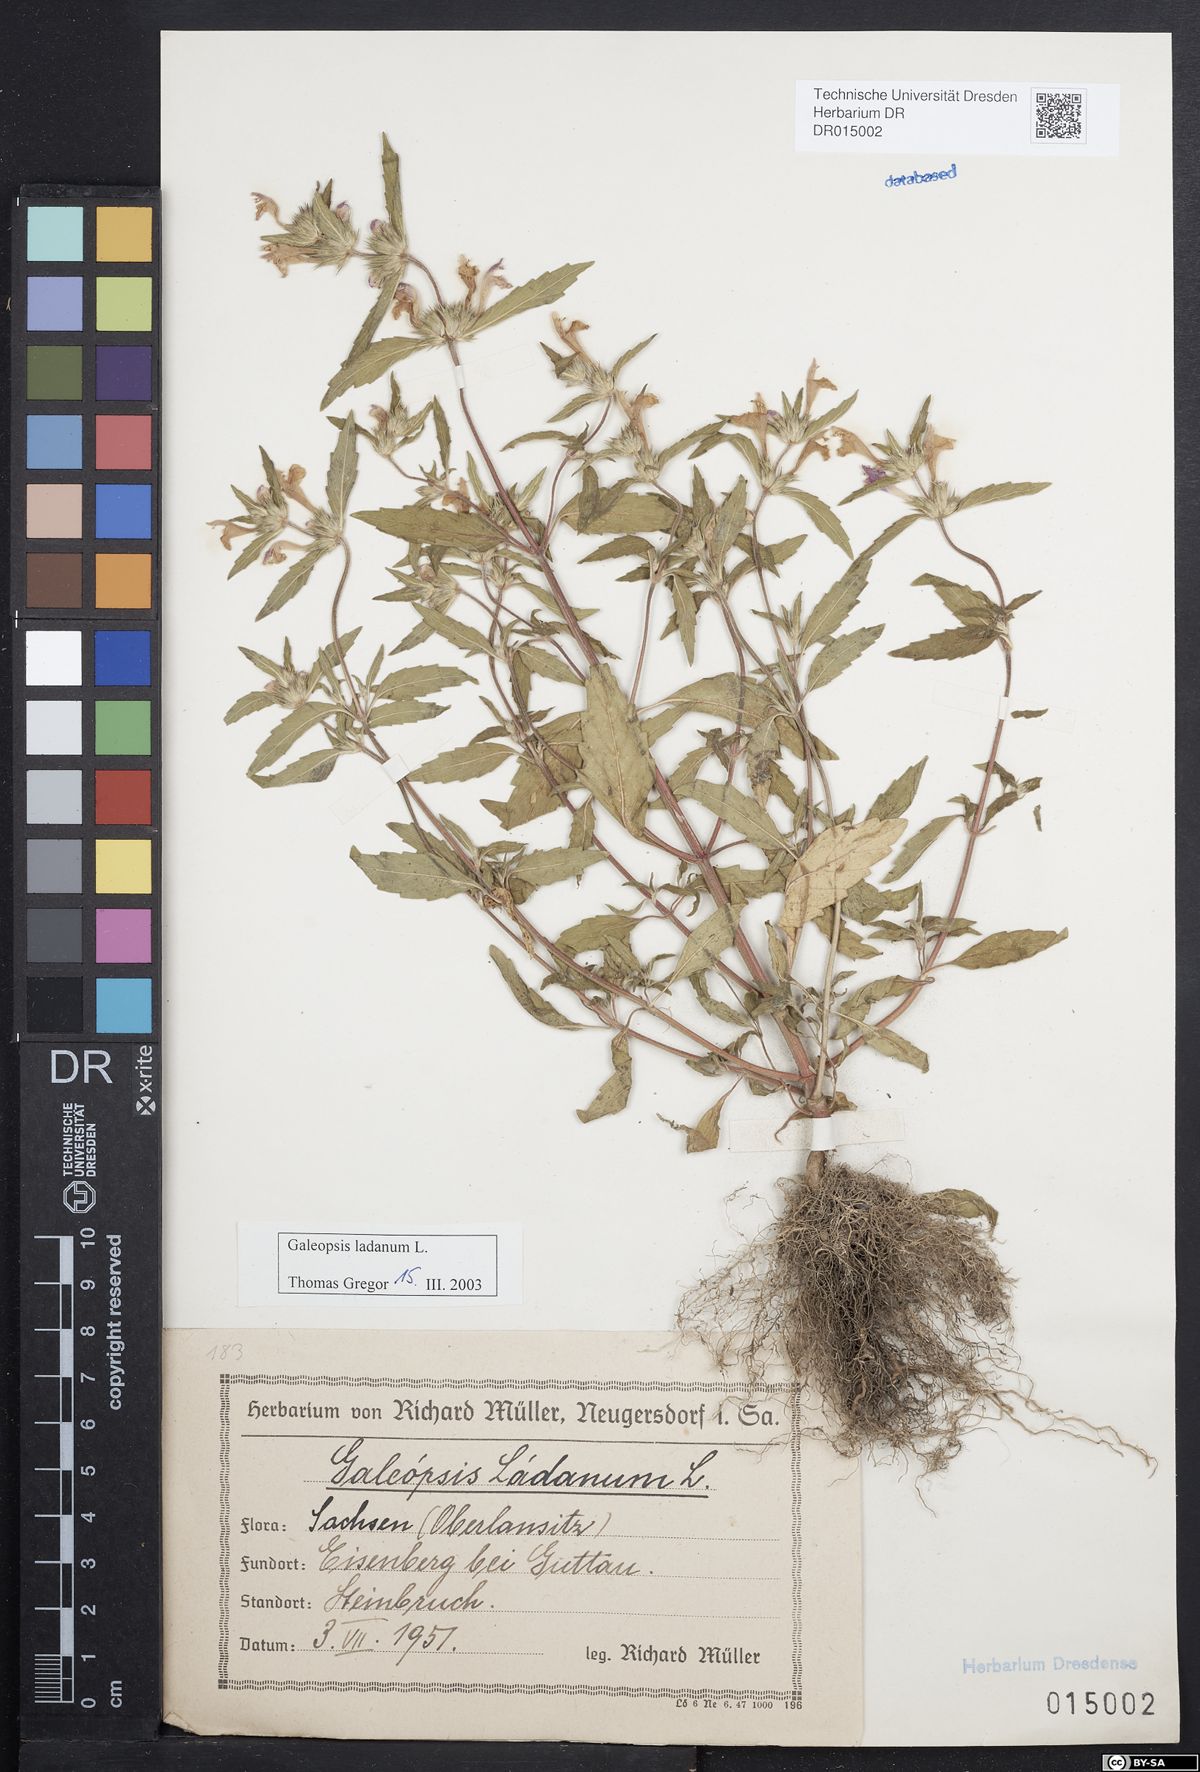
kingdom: Plantae
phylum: Tracheophyta
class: Magnoliopsida
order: Lamiales
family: Lamiaceae
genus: Galeopsis
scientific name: Galeopsis ladanum
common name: Broad-leaved hemp-nettle
